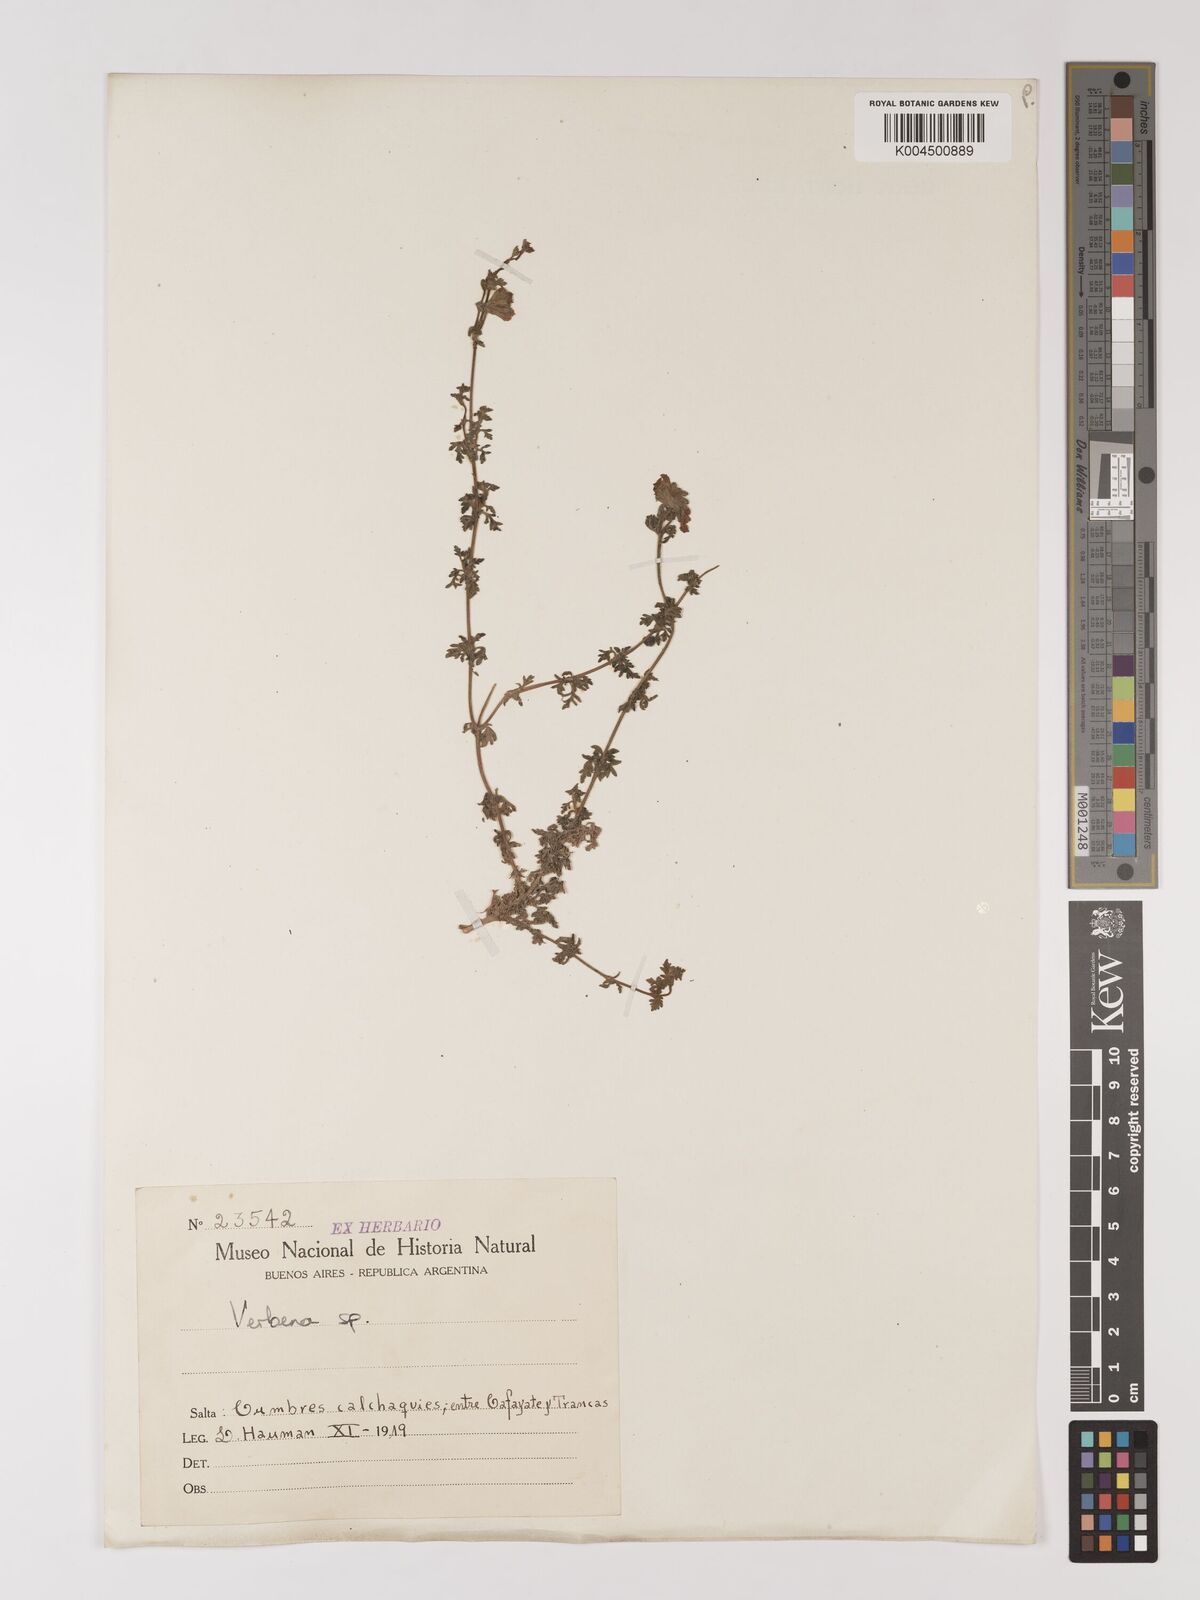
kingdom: Plantae
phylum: Tracheophyta
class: Magnoliopsida
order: Lamiales
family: Verbenaceae
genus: Verbena
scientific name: Verbena
